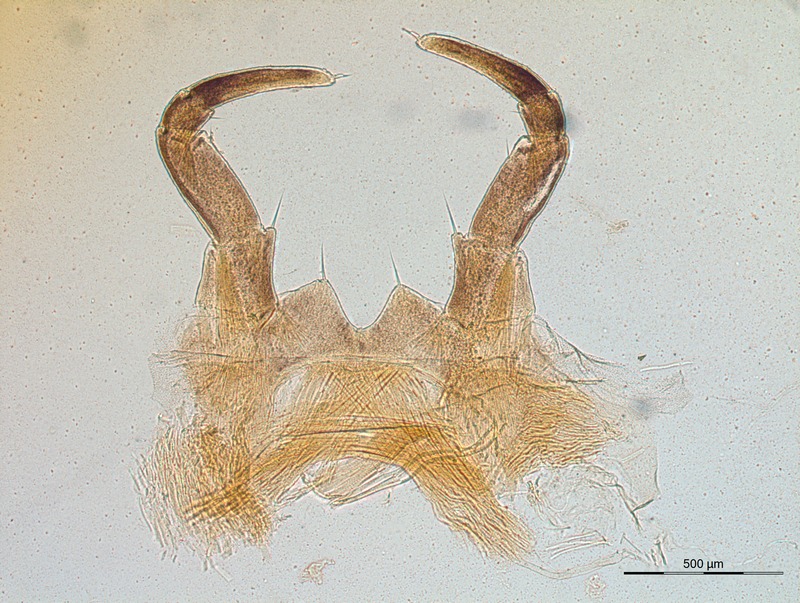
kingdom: Animalia
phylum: Arthropoda
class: Diplopoda
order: Glomerida
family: Glomeridae
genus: Glomeris
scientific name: Glomeris klugii
